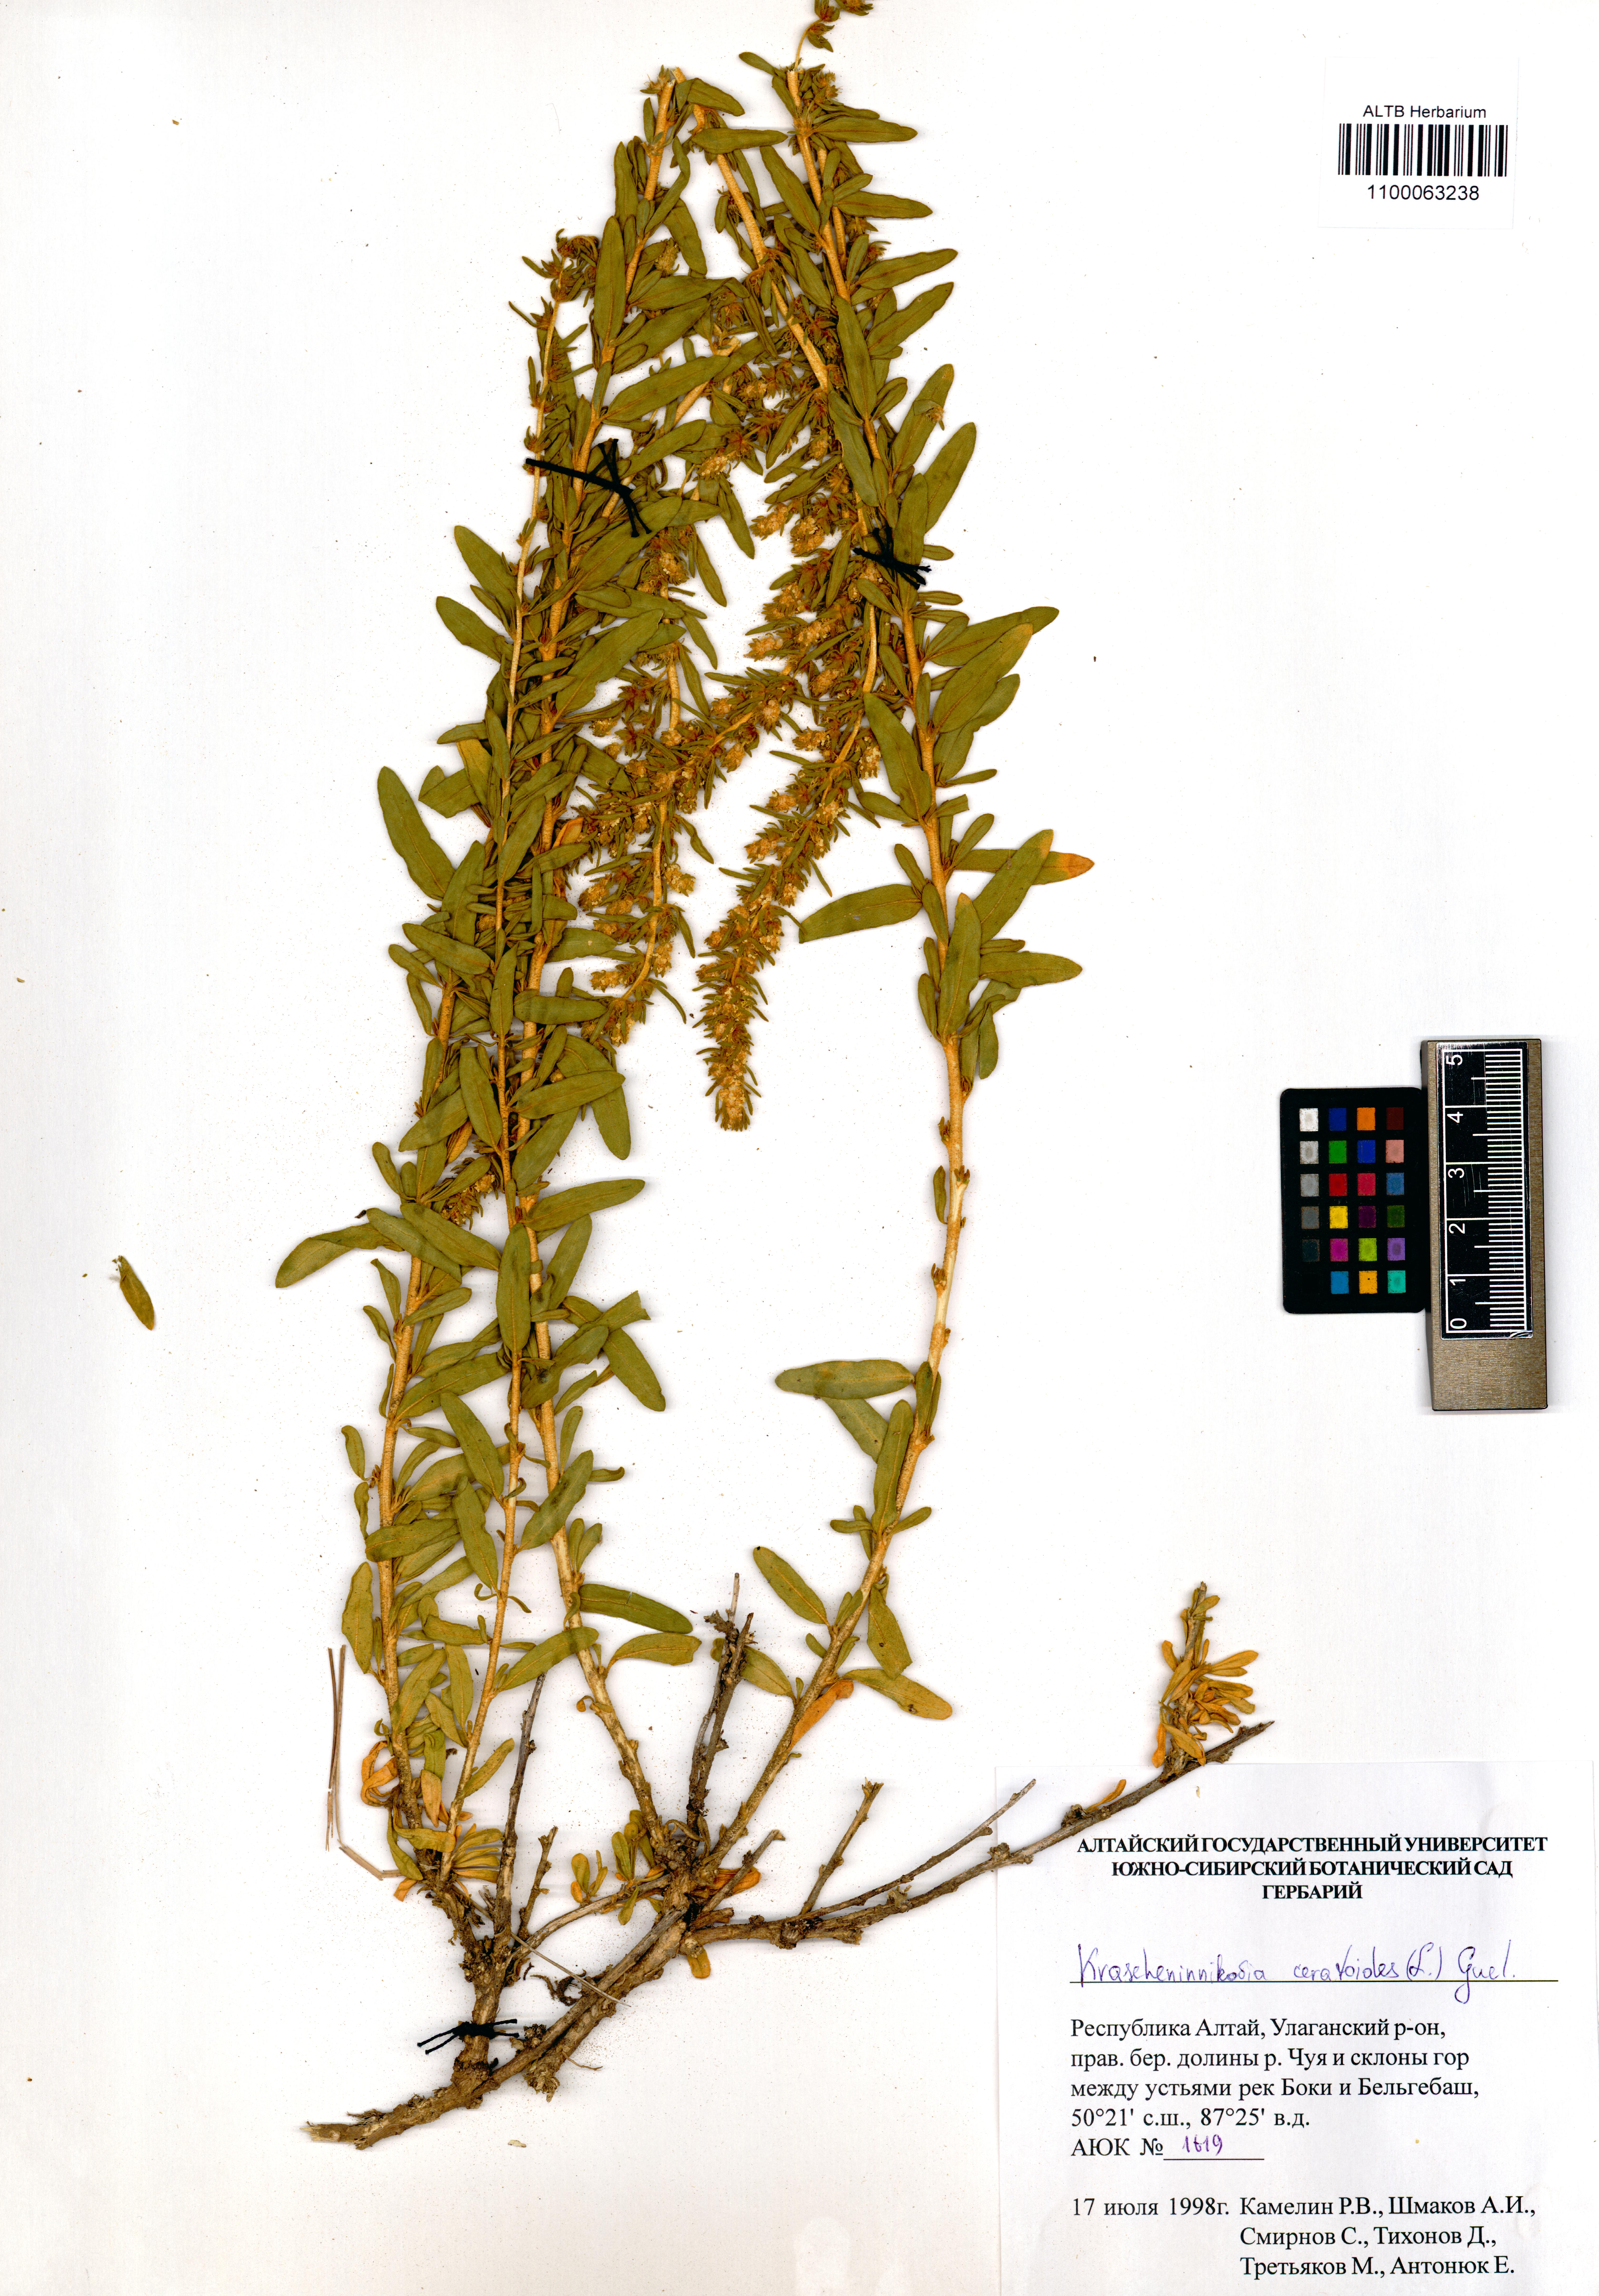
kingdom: Plantae
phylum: Tracheophyta
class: Magnoliopsida
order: Caryophyllales
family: Amaranthaceae
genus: Krascheninnikovia
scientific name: Krascheninnikovia ceratoides
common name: Pamirian winterfat
